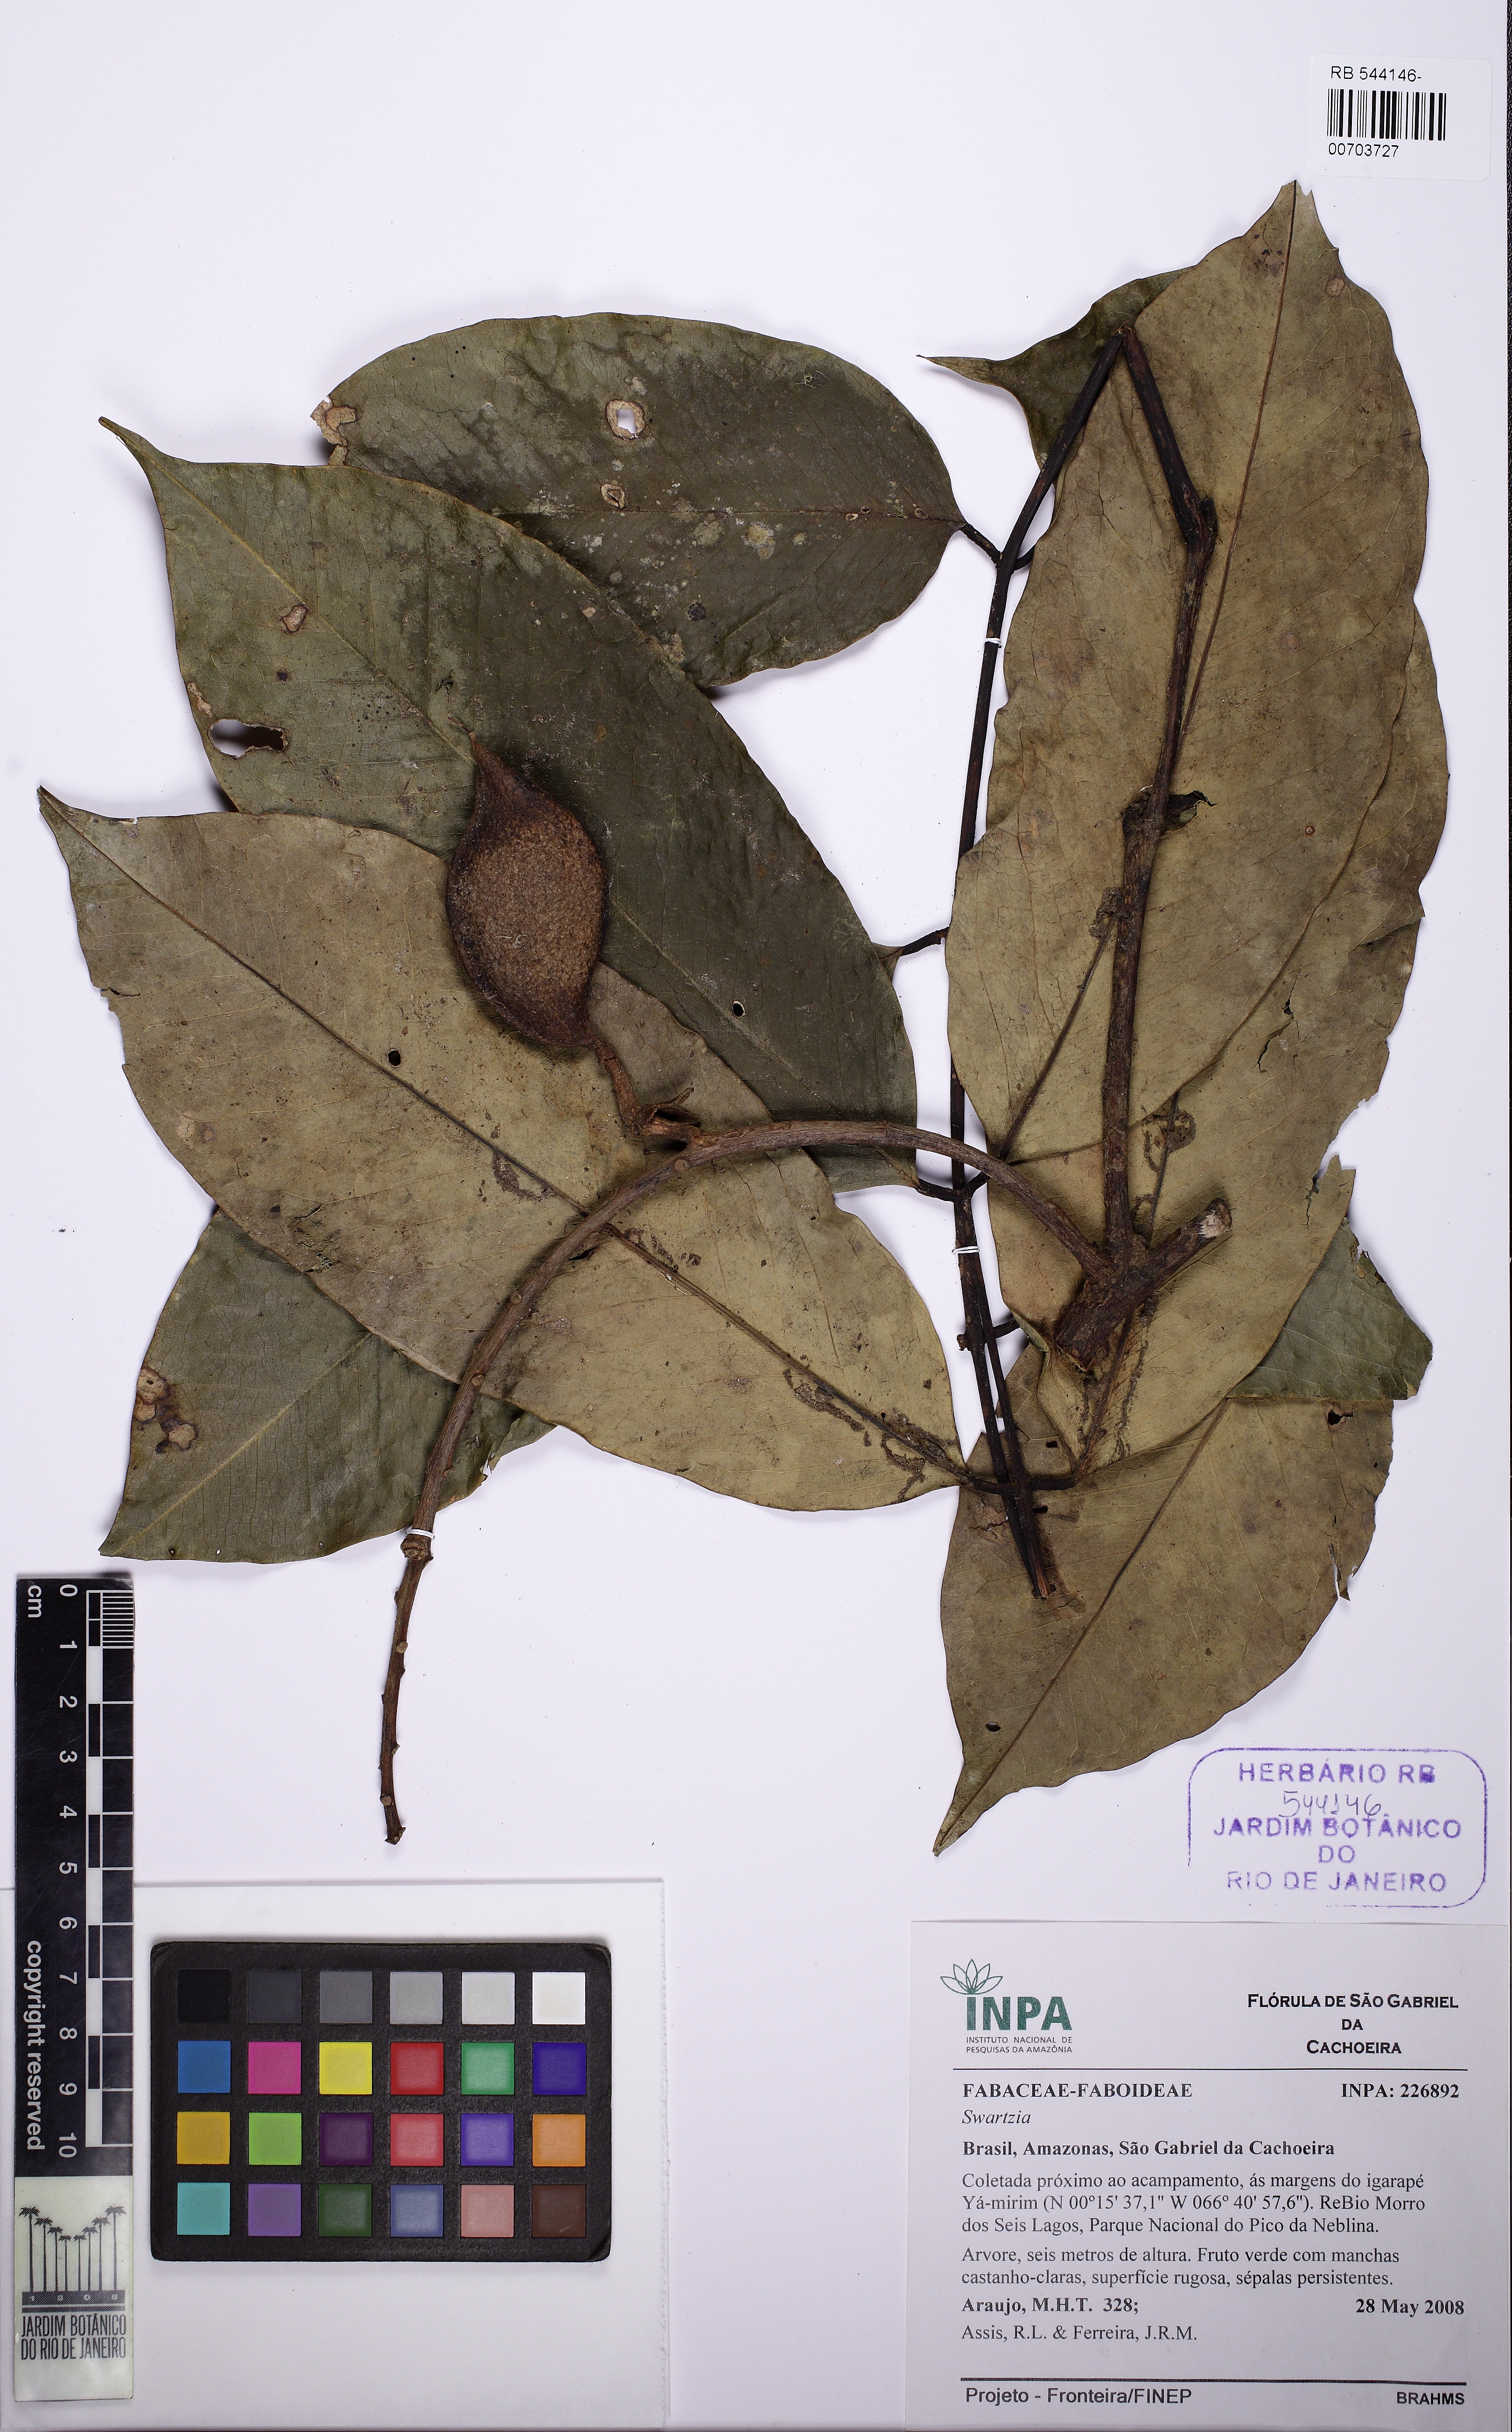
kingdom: Plantae
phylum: Tracheophyta
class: Magnoliopsida
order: Fabales
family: Fabaceae
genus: Swartzia
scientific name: Swartzia schomburgkii
